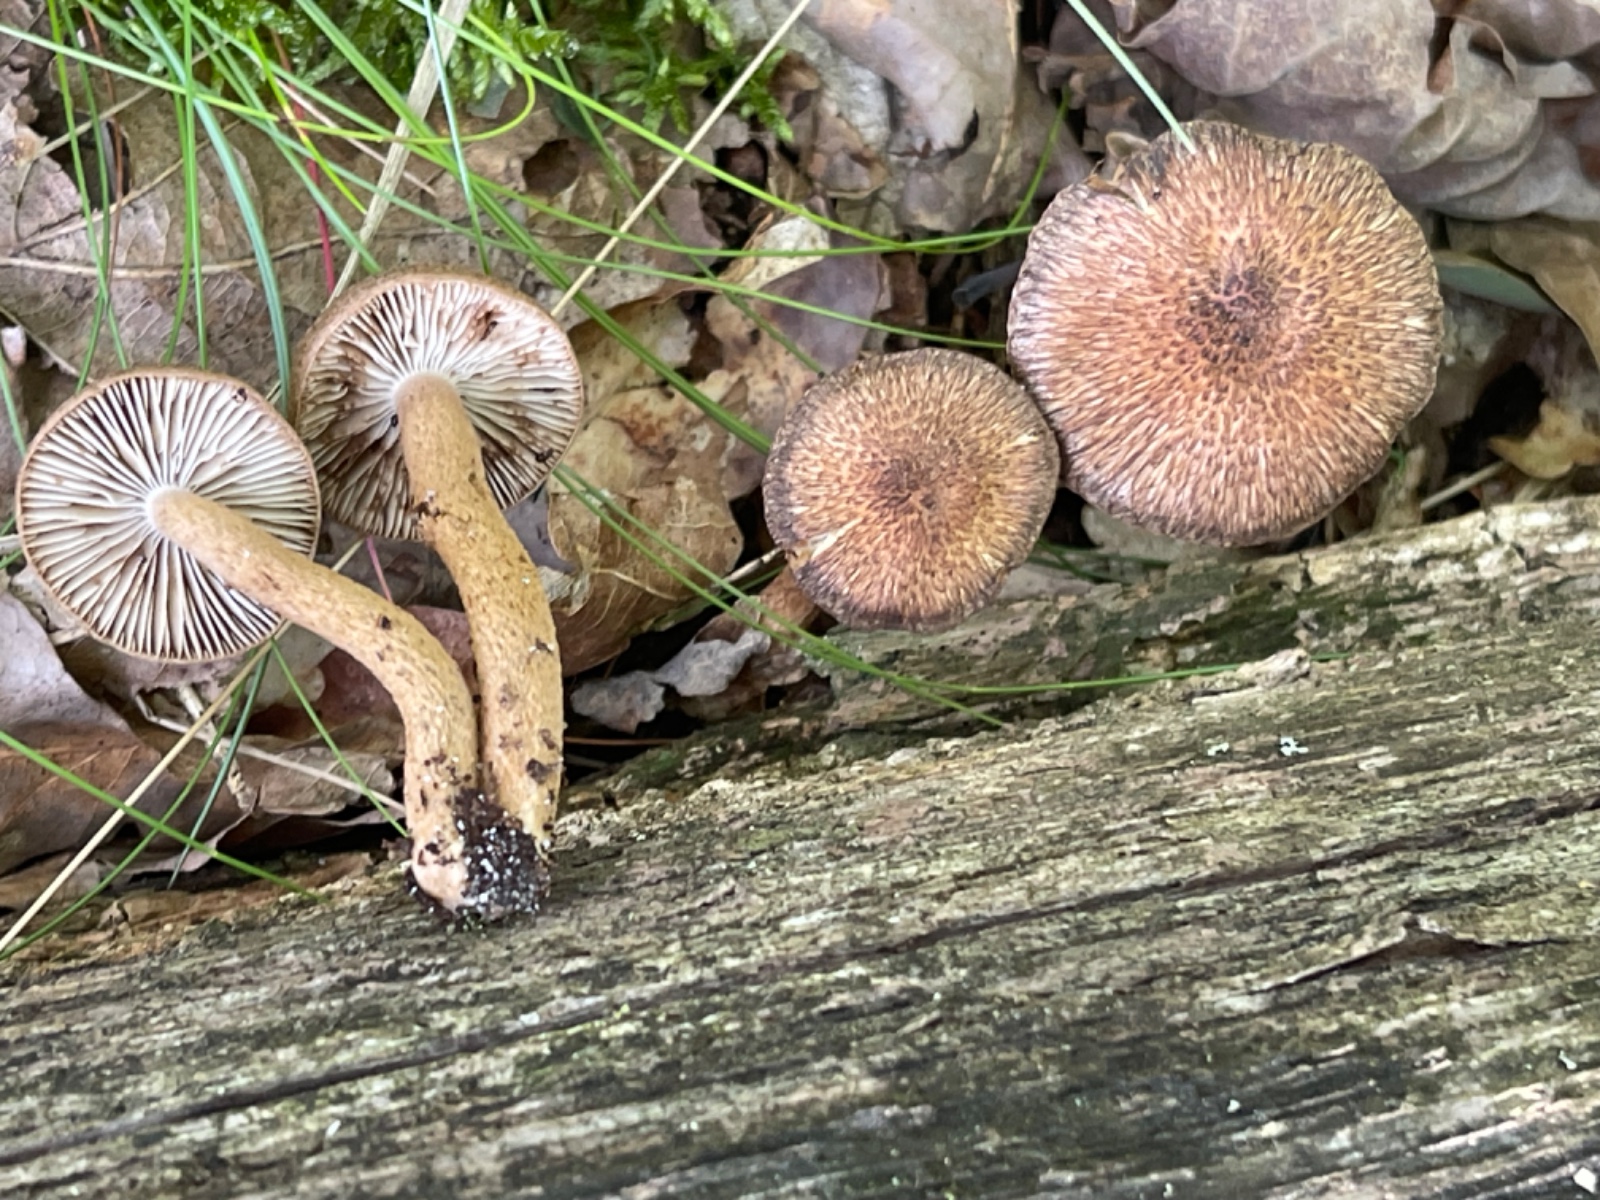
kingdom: Fungi
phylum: Basidiomycota
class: Agaricomycetes
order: Agaricales
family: Inocybaceae
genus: Inocybe
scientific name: Inocybe
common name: trævlhat
